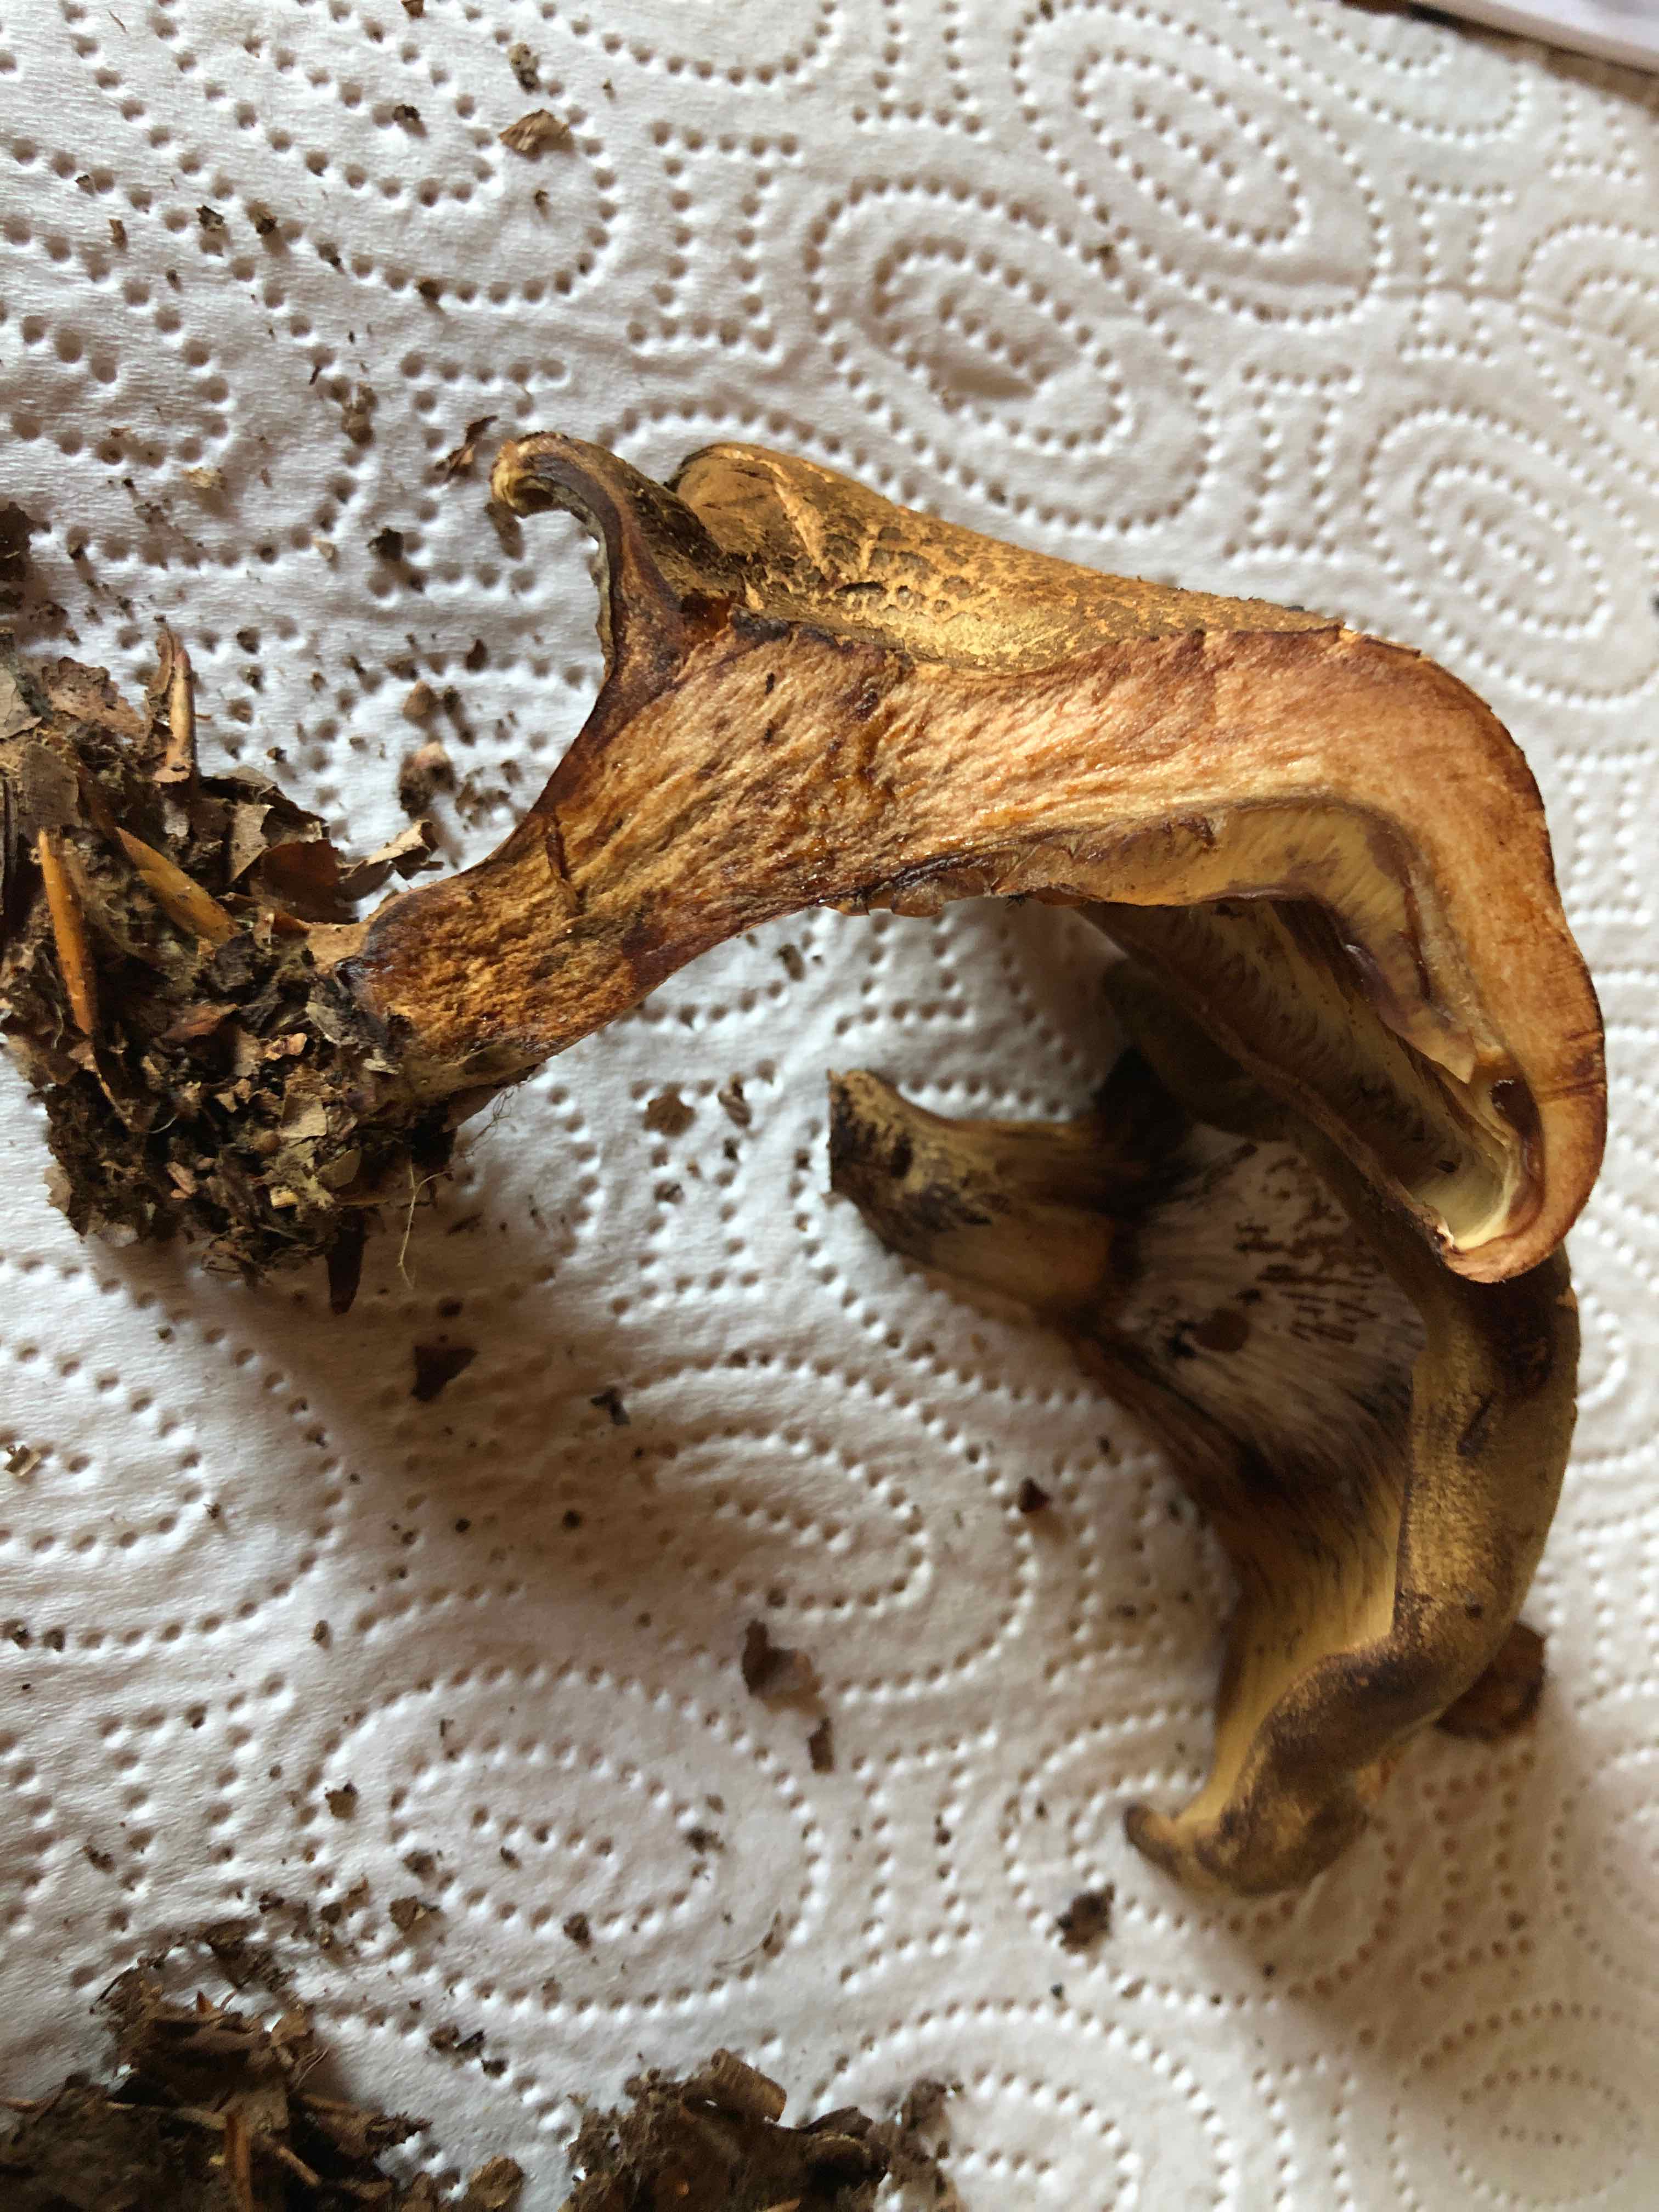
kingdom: Fungi
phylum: Basidiomycota
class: Agaricomycetes
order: Boletales
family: Paxillaceae
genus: Paxillus
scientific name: Paxillus
